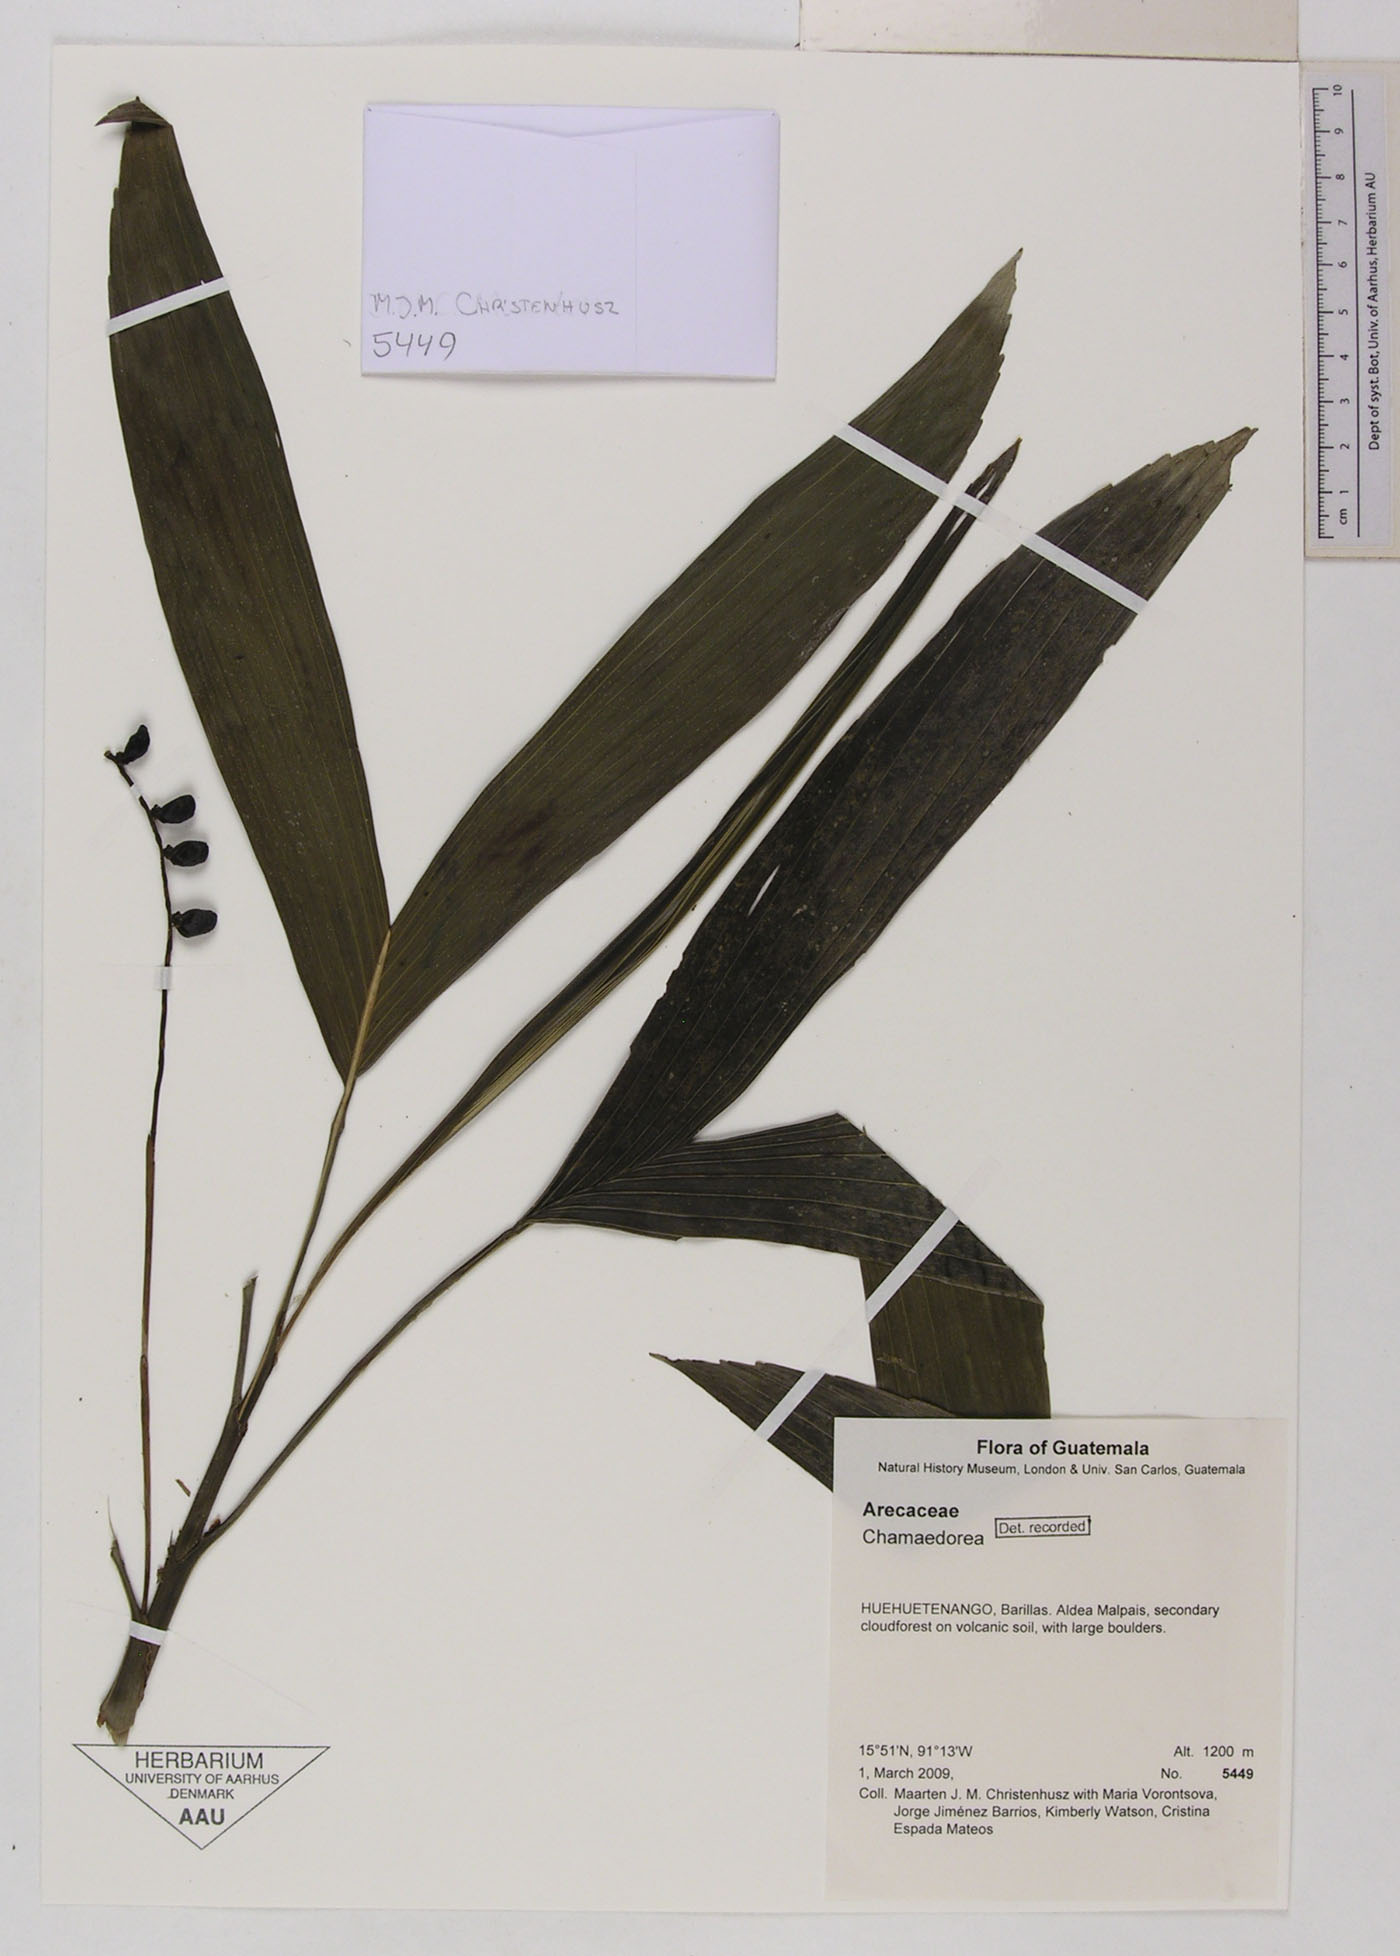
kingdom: Plantae
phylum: Tracheophyta
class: Liliopsida
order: Arecales
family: Arecaceae
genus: Chamaedorea
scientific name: Chamaedorea
